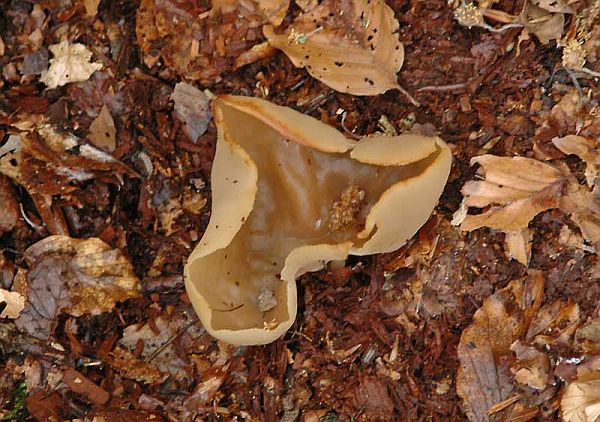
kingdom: Fungi
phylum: Ascomycota
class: Pezizomycetes
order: Pezizales
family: Pezizaceae
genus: Peziza
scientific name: Peziza arvernensis
